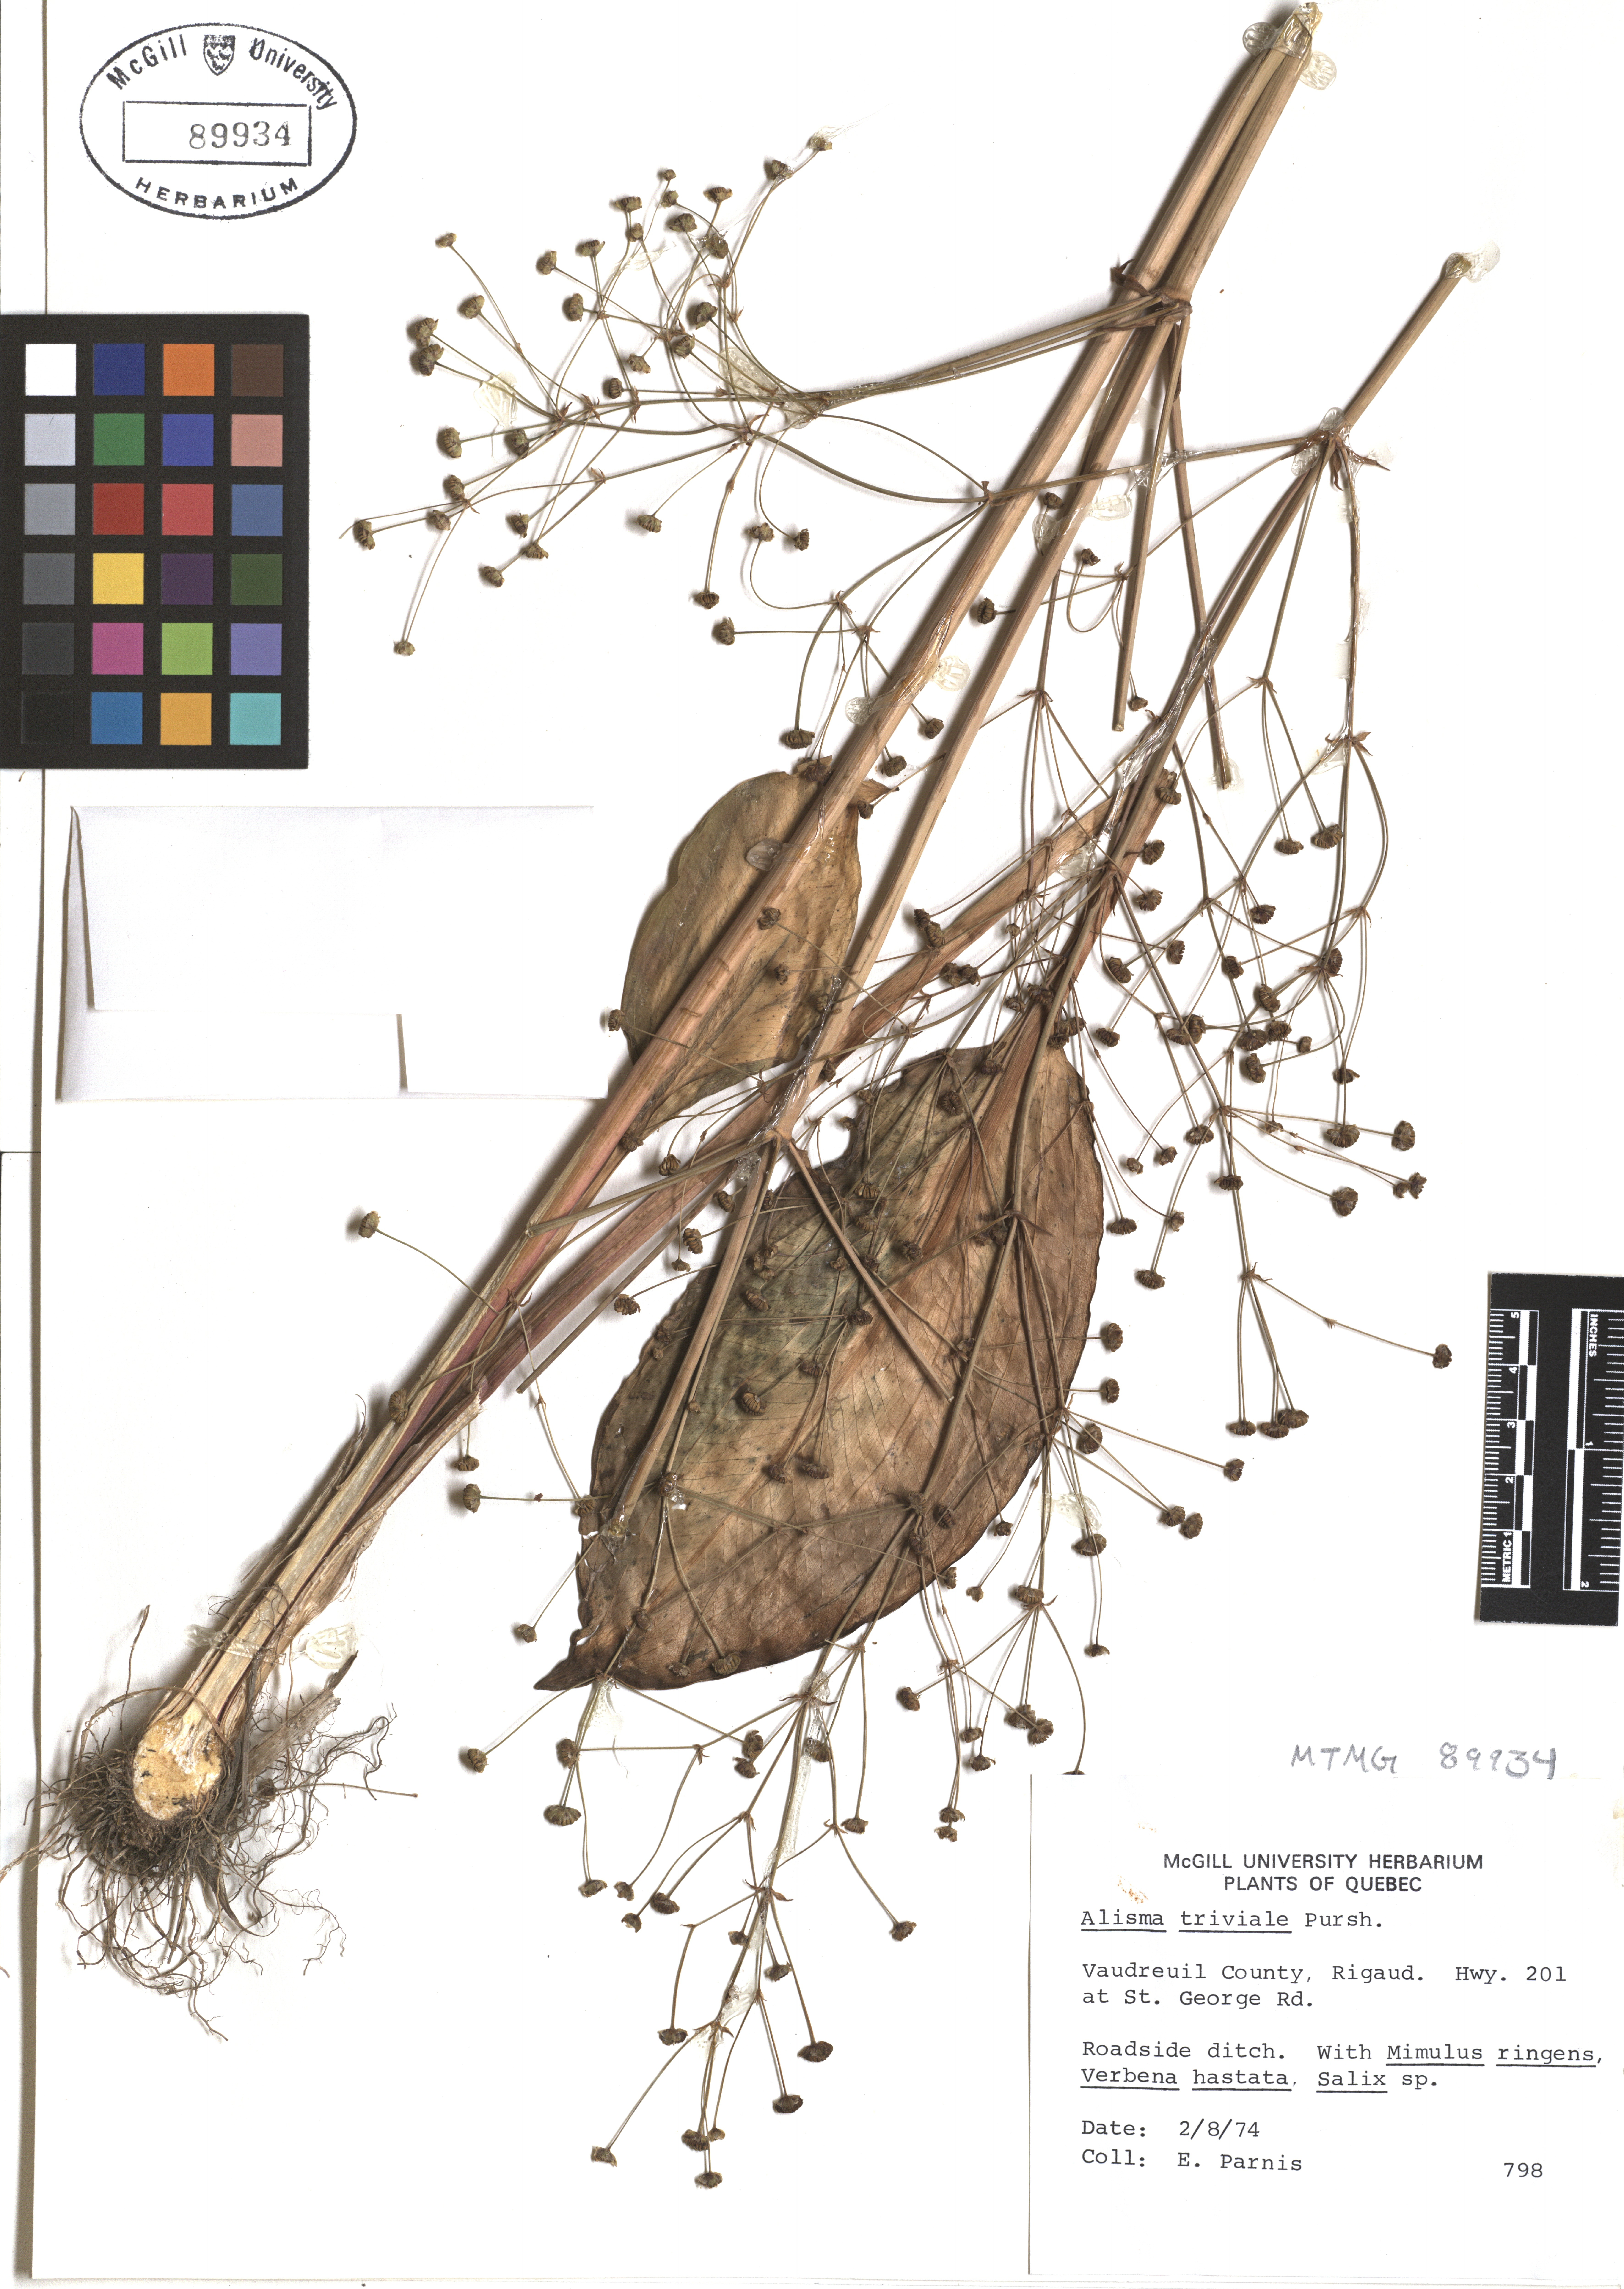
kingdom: Plantae
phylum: Tracheophyta
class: Liliopsida
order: Alismatales
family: Alismataceae
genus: Alisma
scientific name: Alisma triviale
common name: Northern water-plantain
